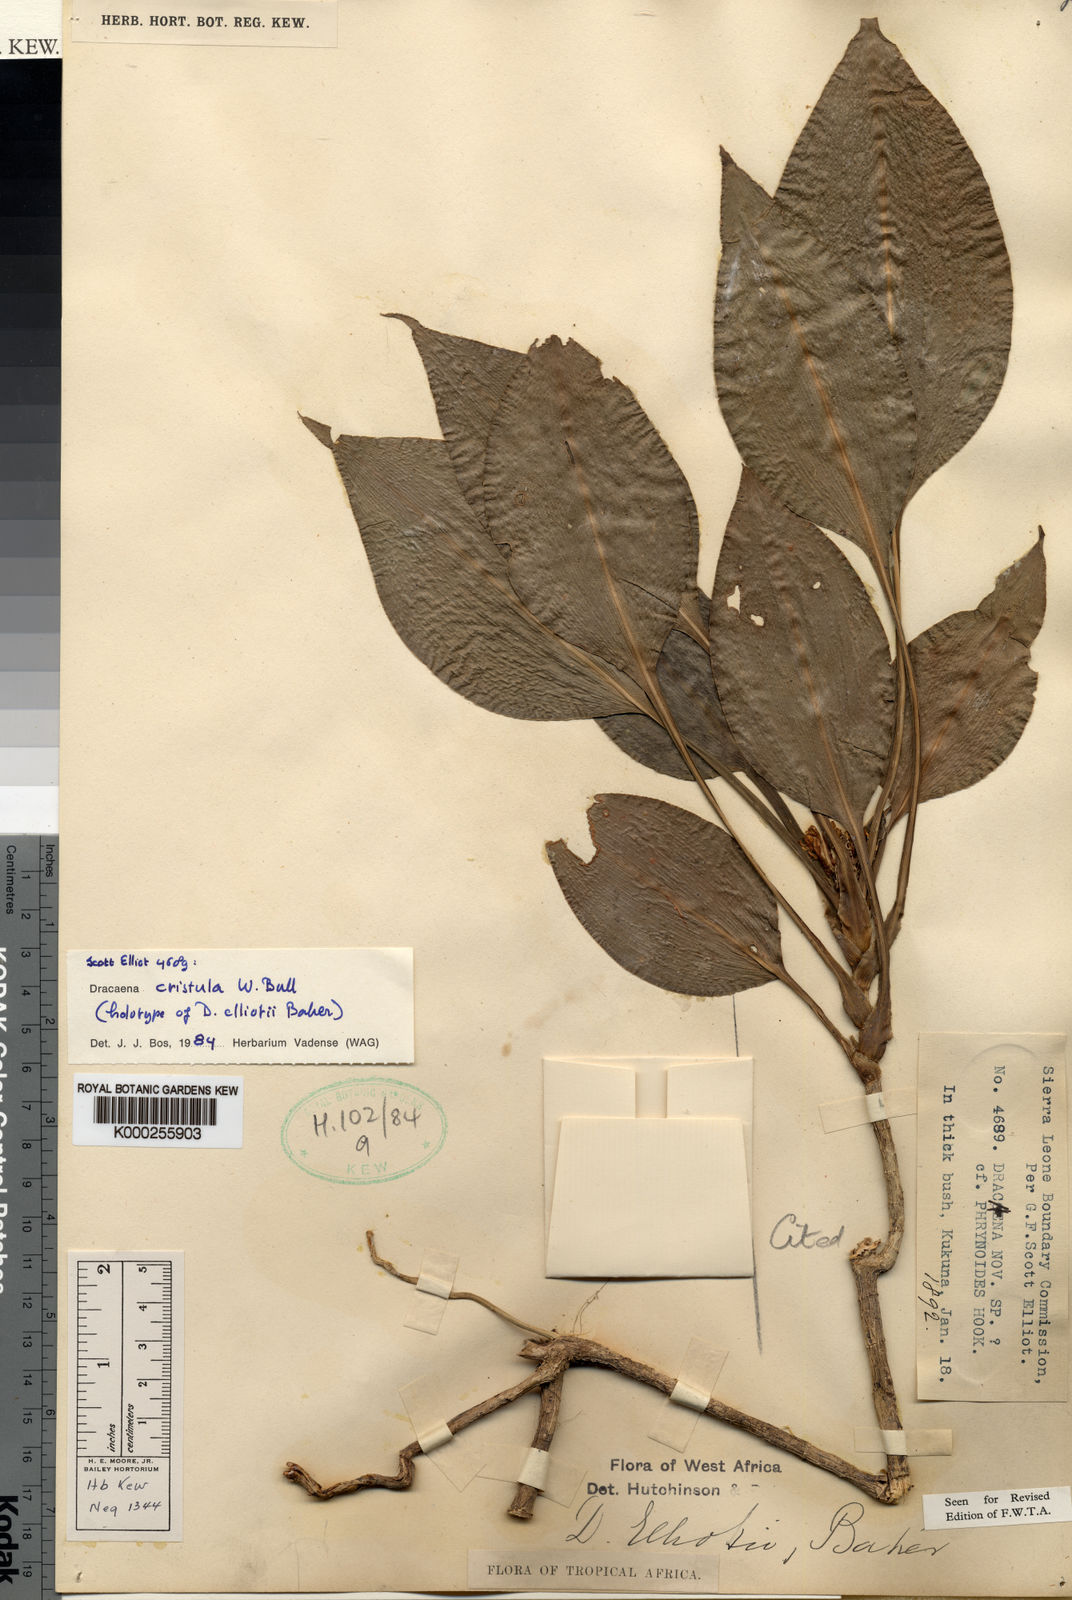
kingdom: Plantae
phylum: Tracheophyta
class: Liliopsida
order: Asparagales
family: Asparagaceae
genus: Dracaena
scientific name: Dracaena cristula
